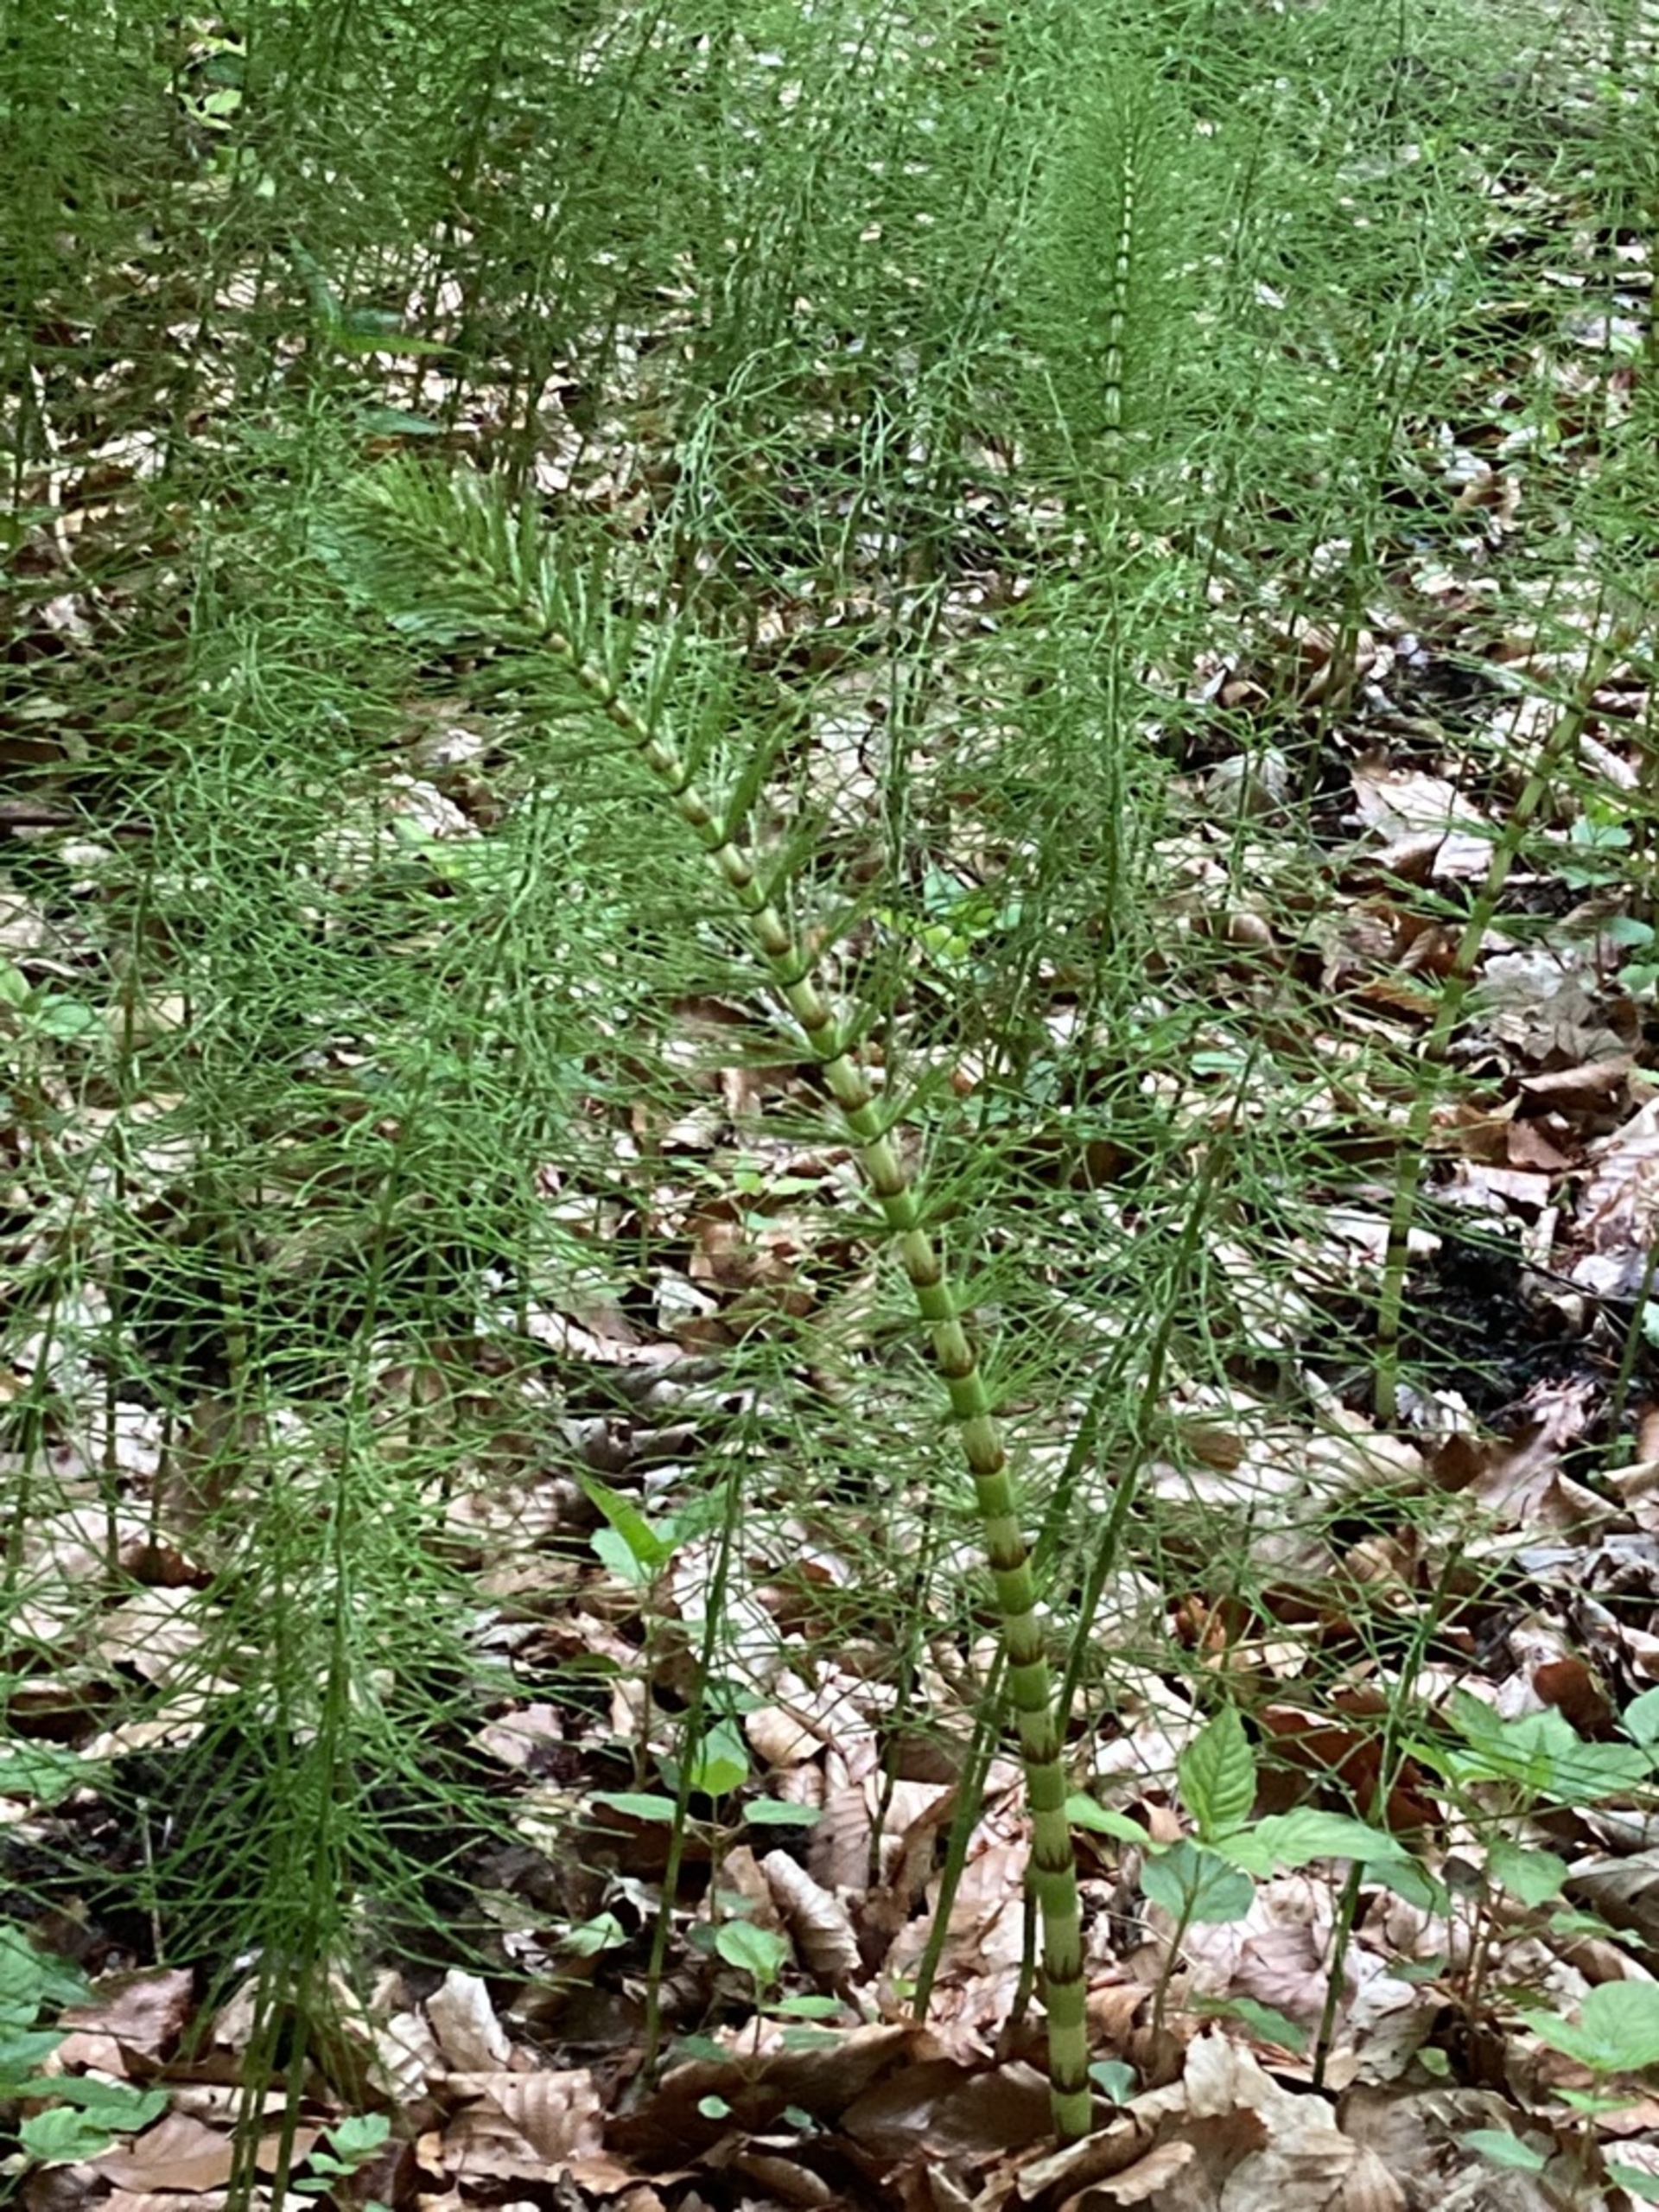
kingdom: Plantae
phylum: Tracheophyta
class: Polypodiopsida
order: Equisetales
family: Equisetaceae
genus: Equisetum
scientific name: Equisetum telmateia
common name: Elfenbens-padderok
